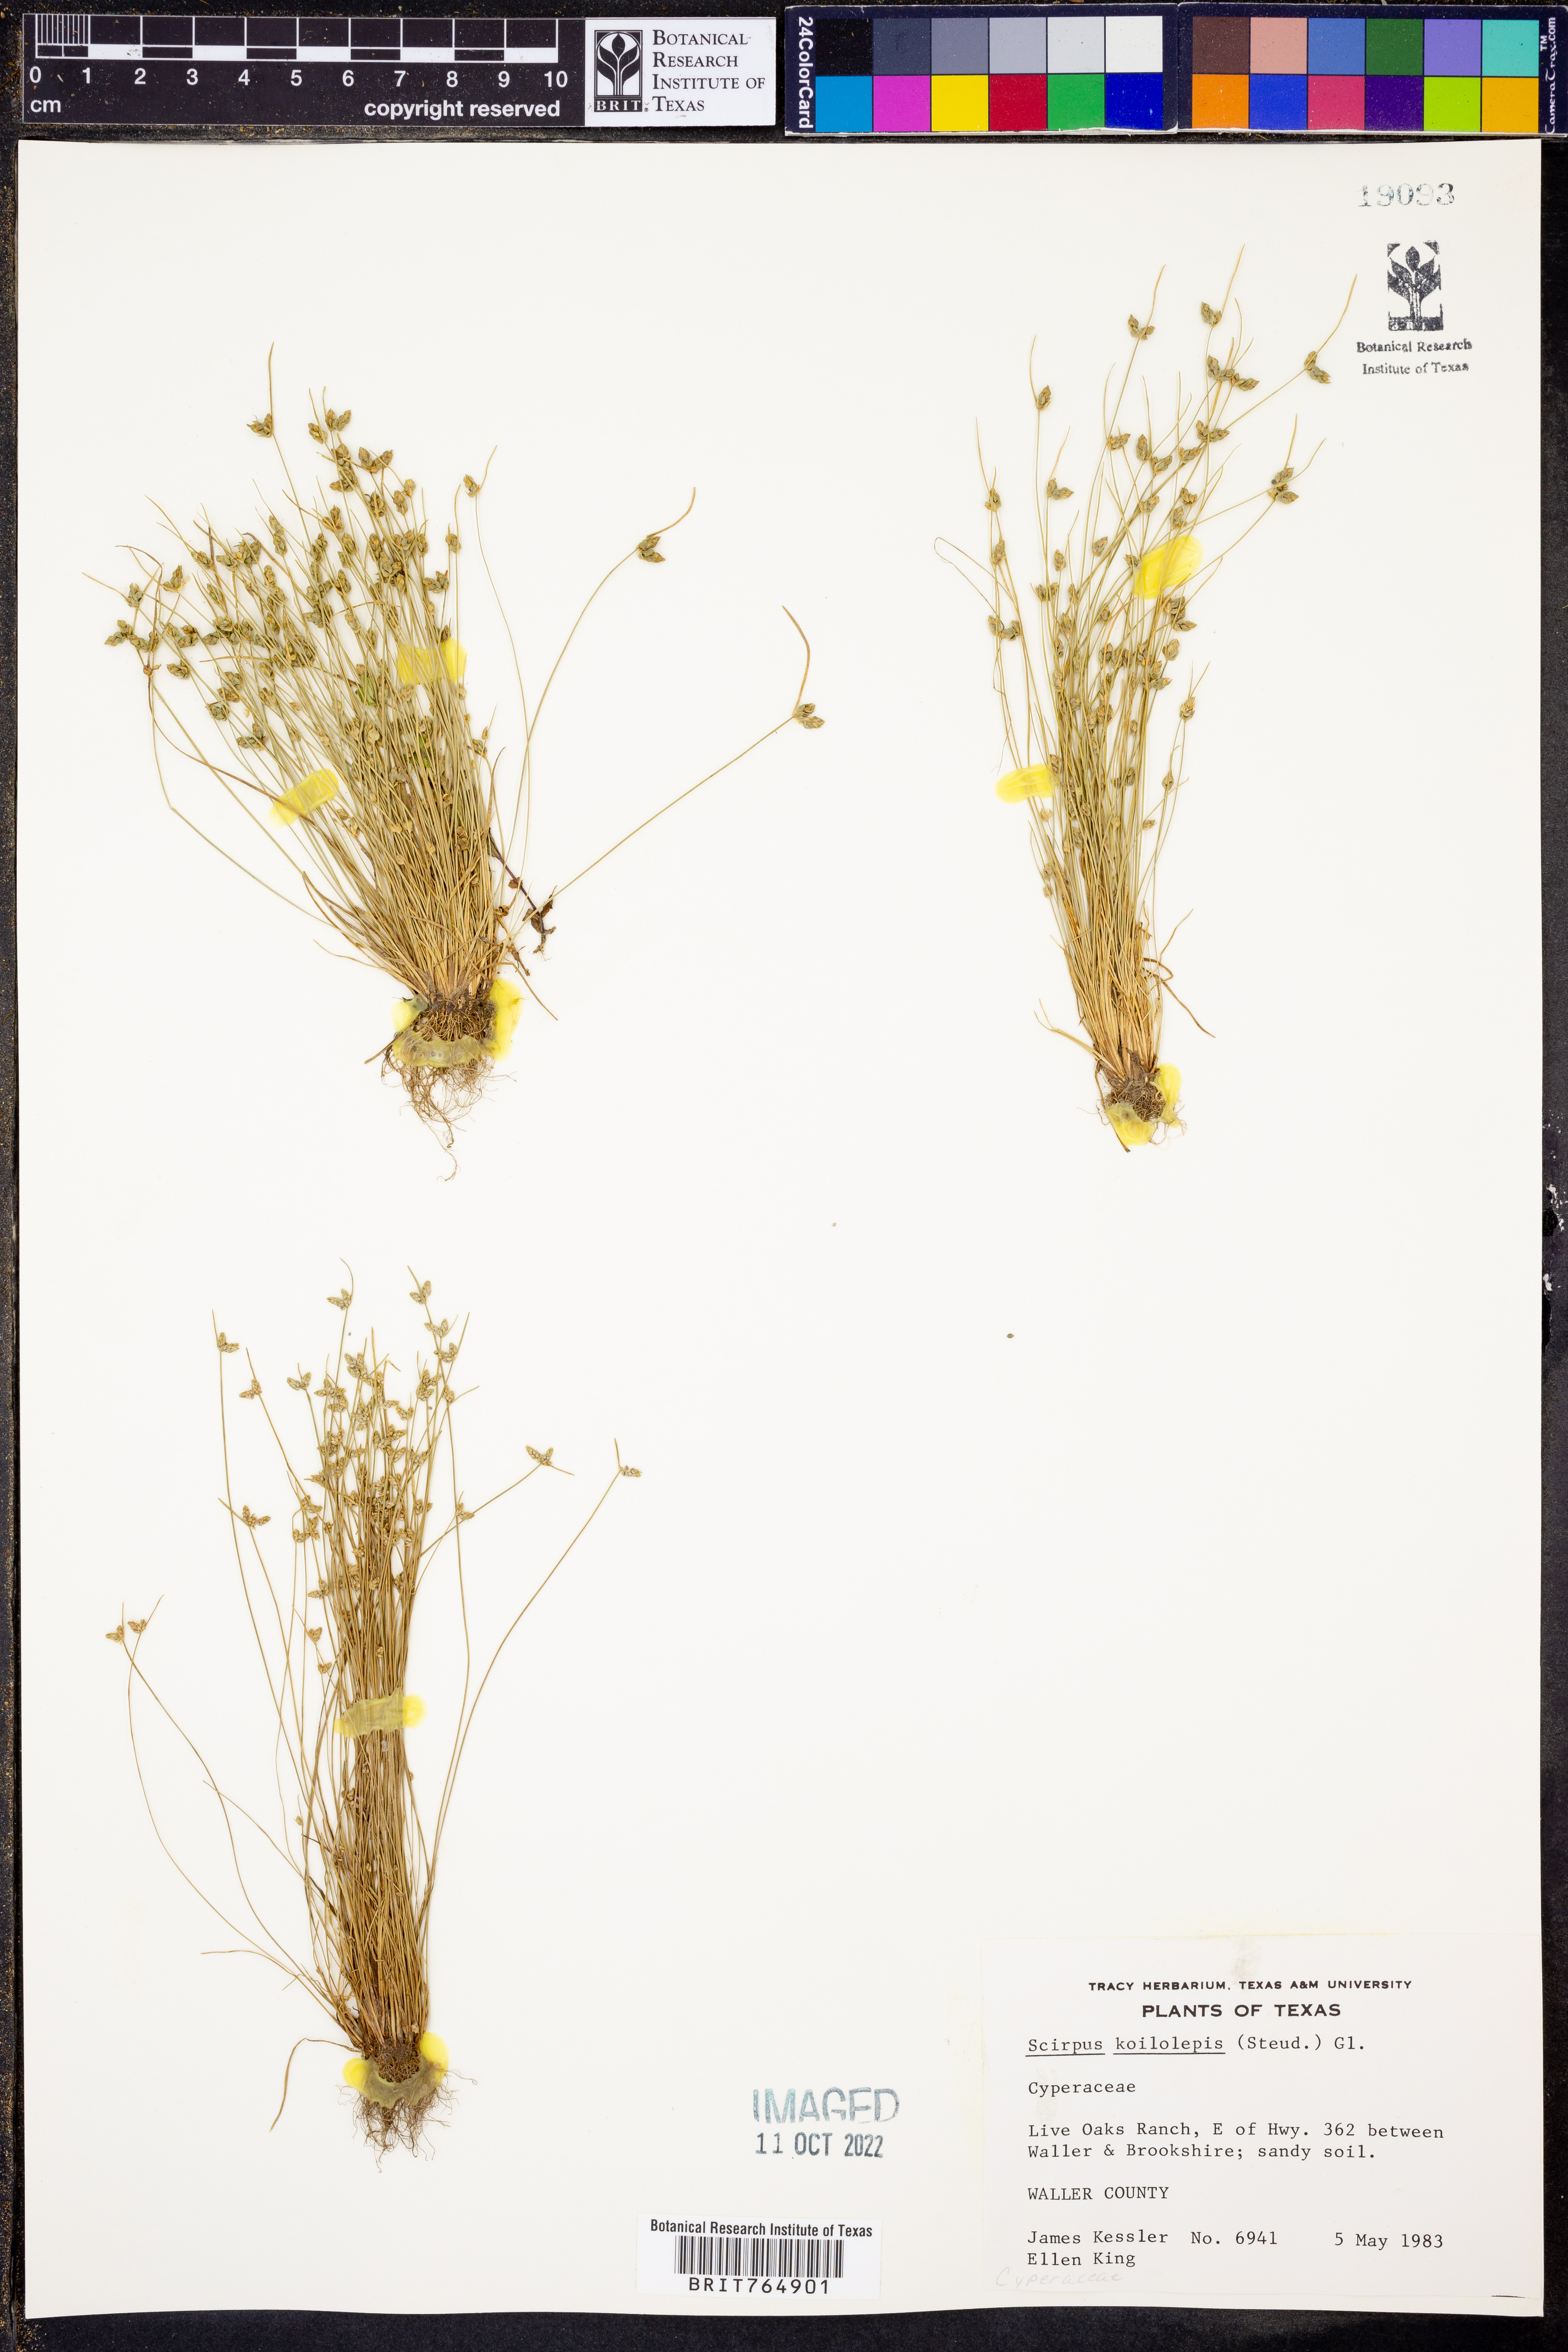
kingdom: Plantae
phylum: Tracheophyta
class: Liliopsida
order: Poales
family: Cyperaceae
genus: Isolepis
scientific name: Isolepis carinata
